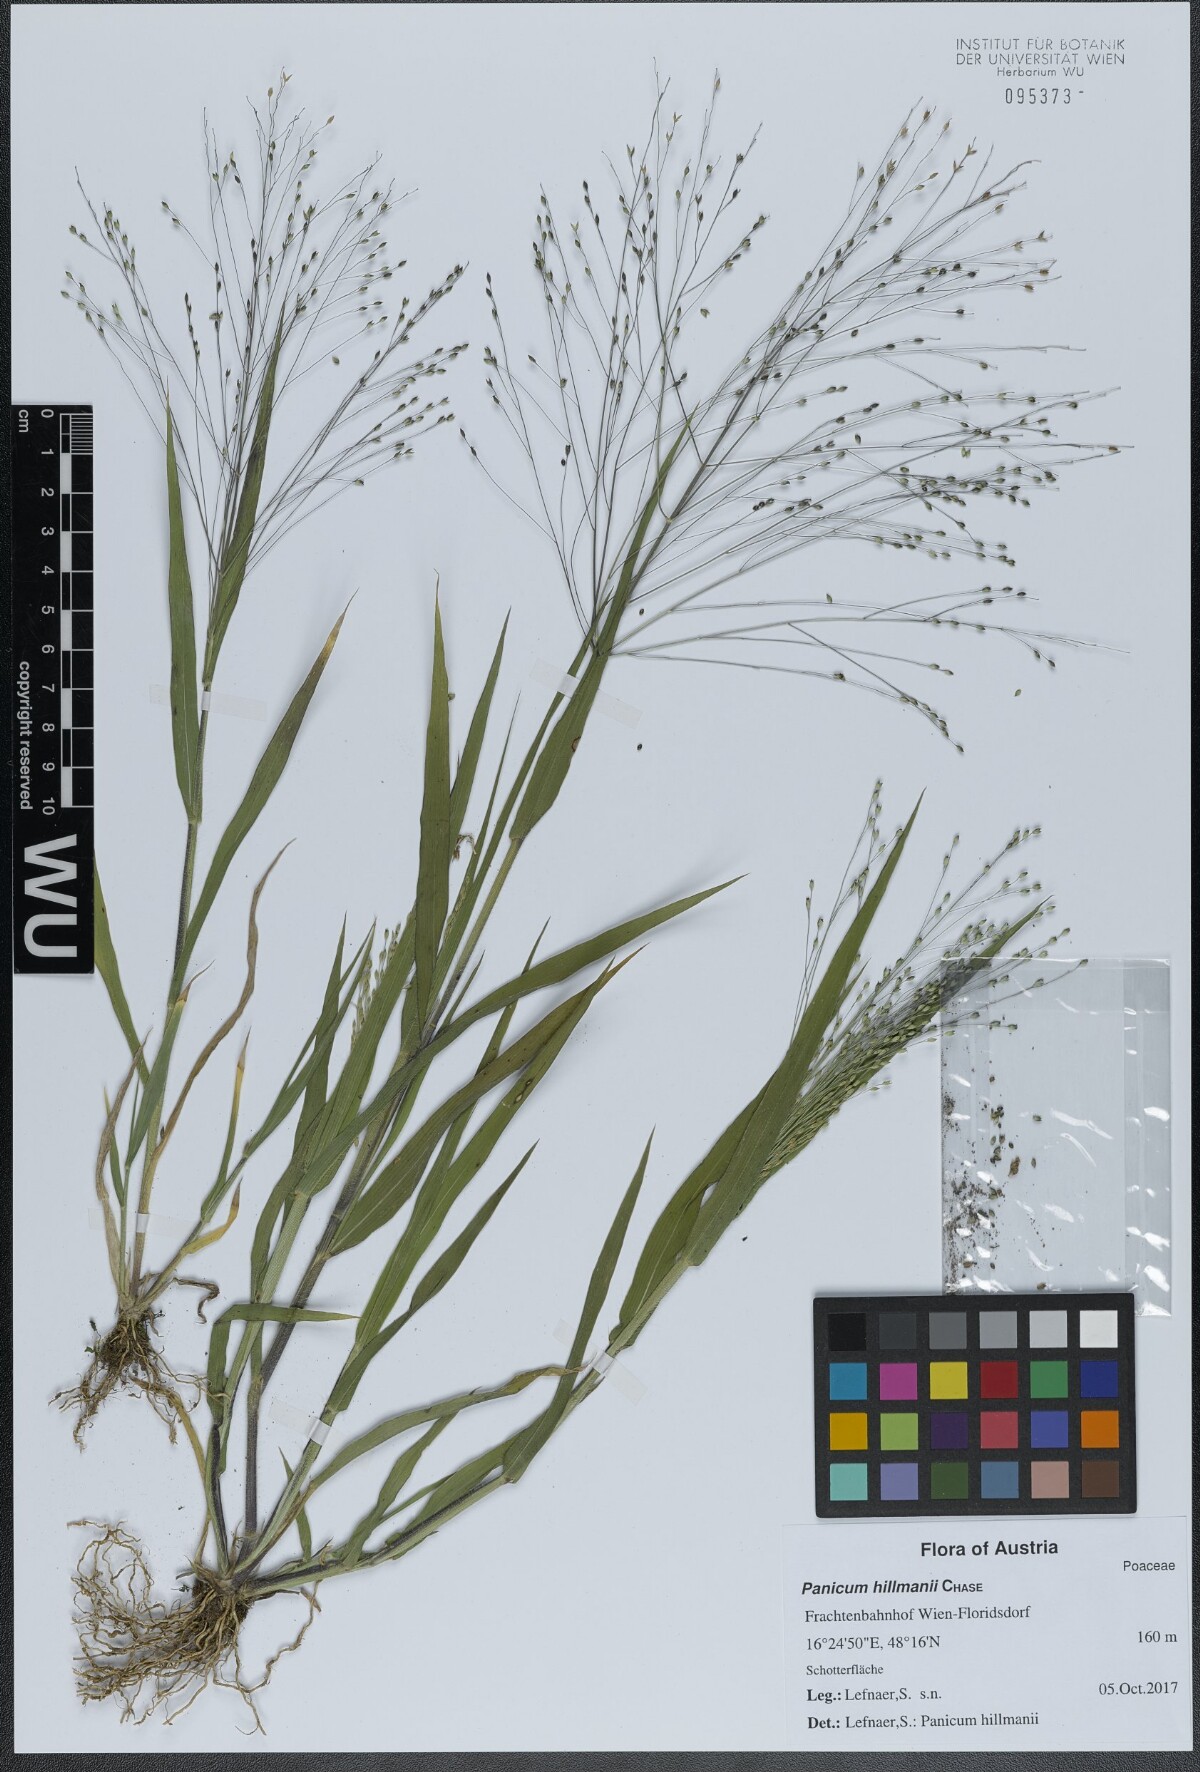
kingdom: Plantae
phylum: Tracheophyta
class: Liliopsida
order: Poales
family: Poaceae
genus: Panicum
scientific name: Panicum hillmanii
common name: Hillman's panicum
